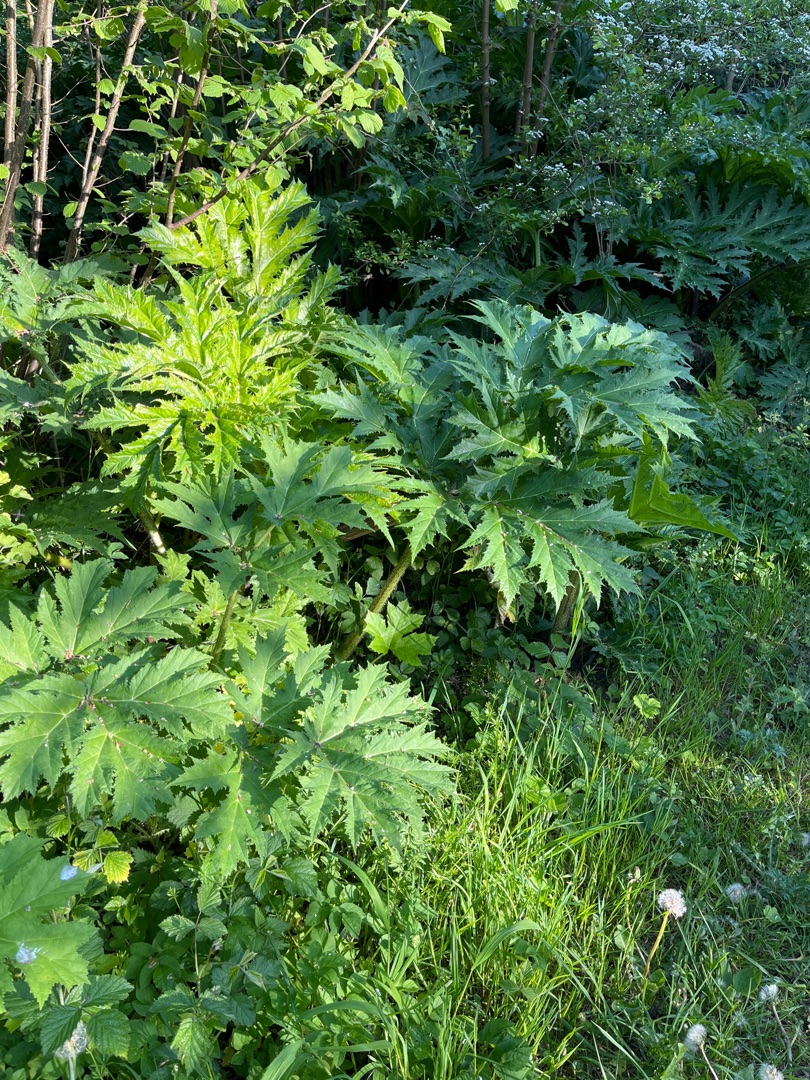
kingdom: Plantae
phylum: Tracheophyta
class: Magnoliopsida
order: Apiales
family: Apiaceae
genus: Heracleum
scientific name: Heracleum mantegazzianum
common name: Kæmpe-bjørneklo
